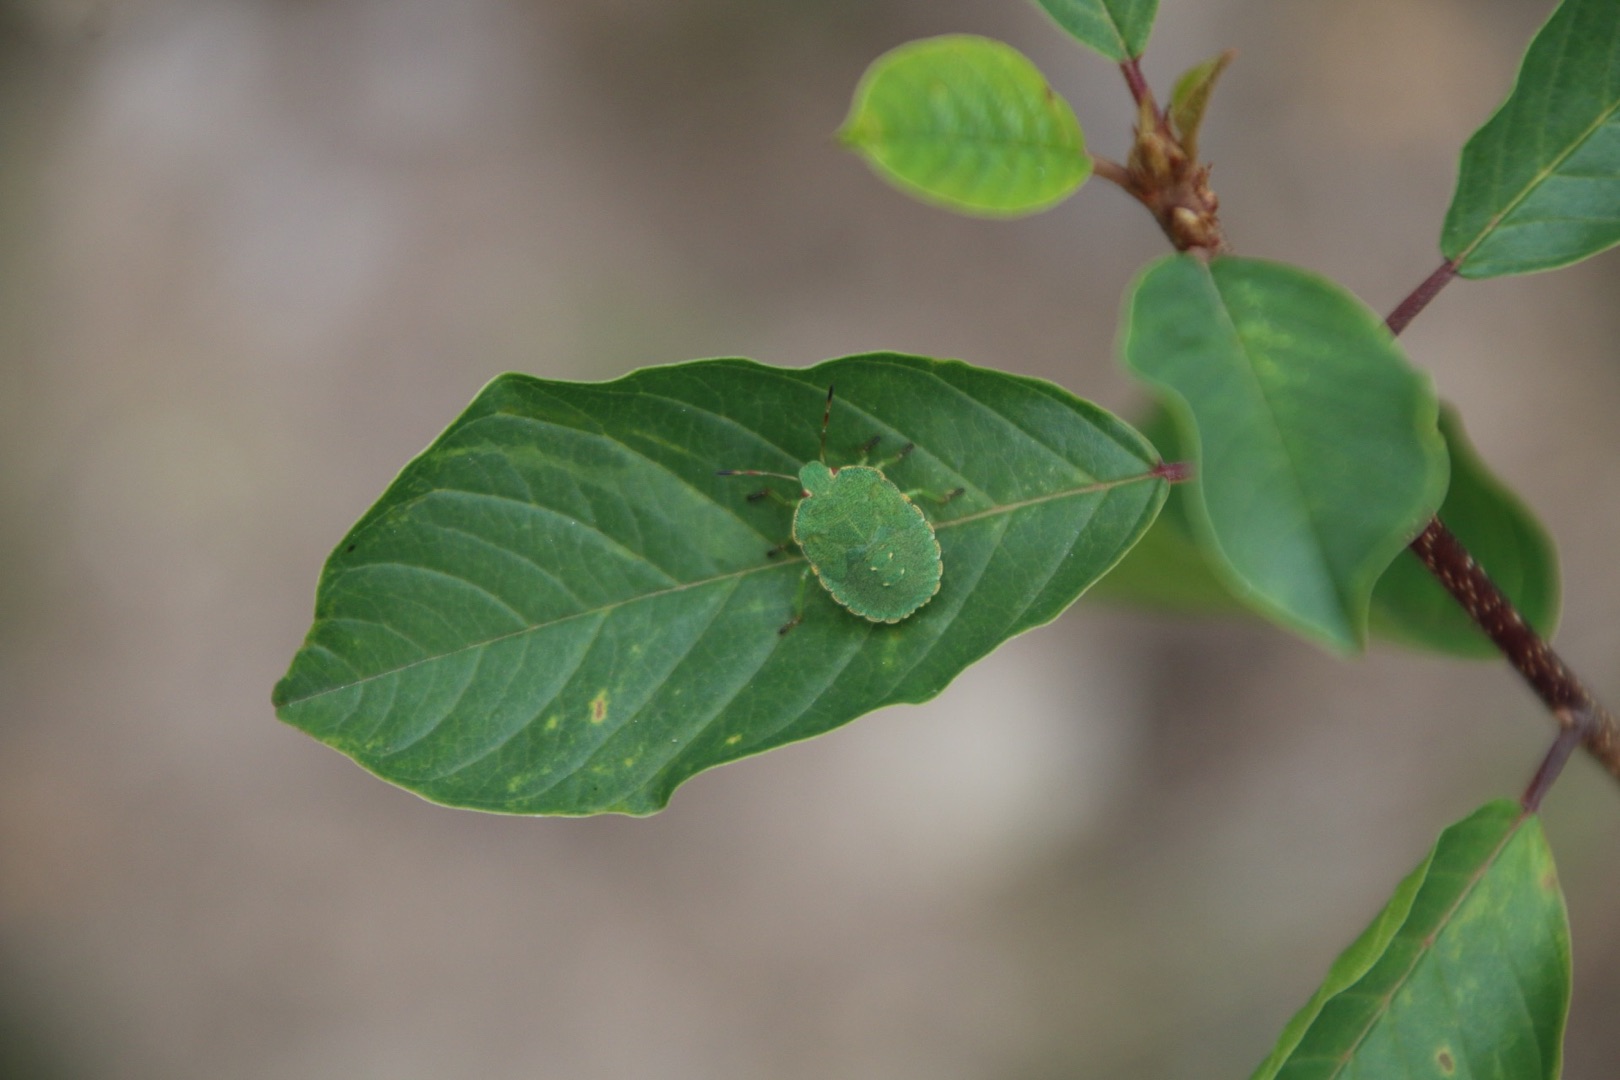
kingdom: Plantae
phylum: Tracheophyta
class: Magnoliopsida
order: Rosales
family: Rhamnaceae
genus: Frangula
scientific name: Frangula alnus
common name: Tørst
